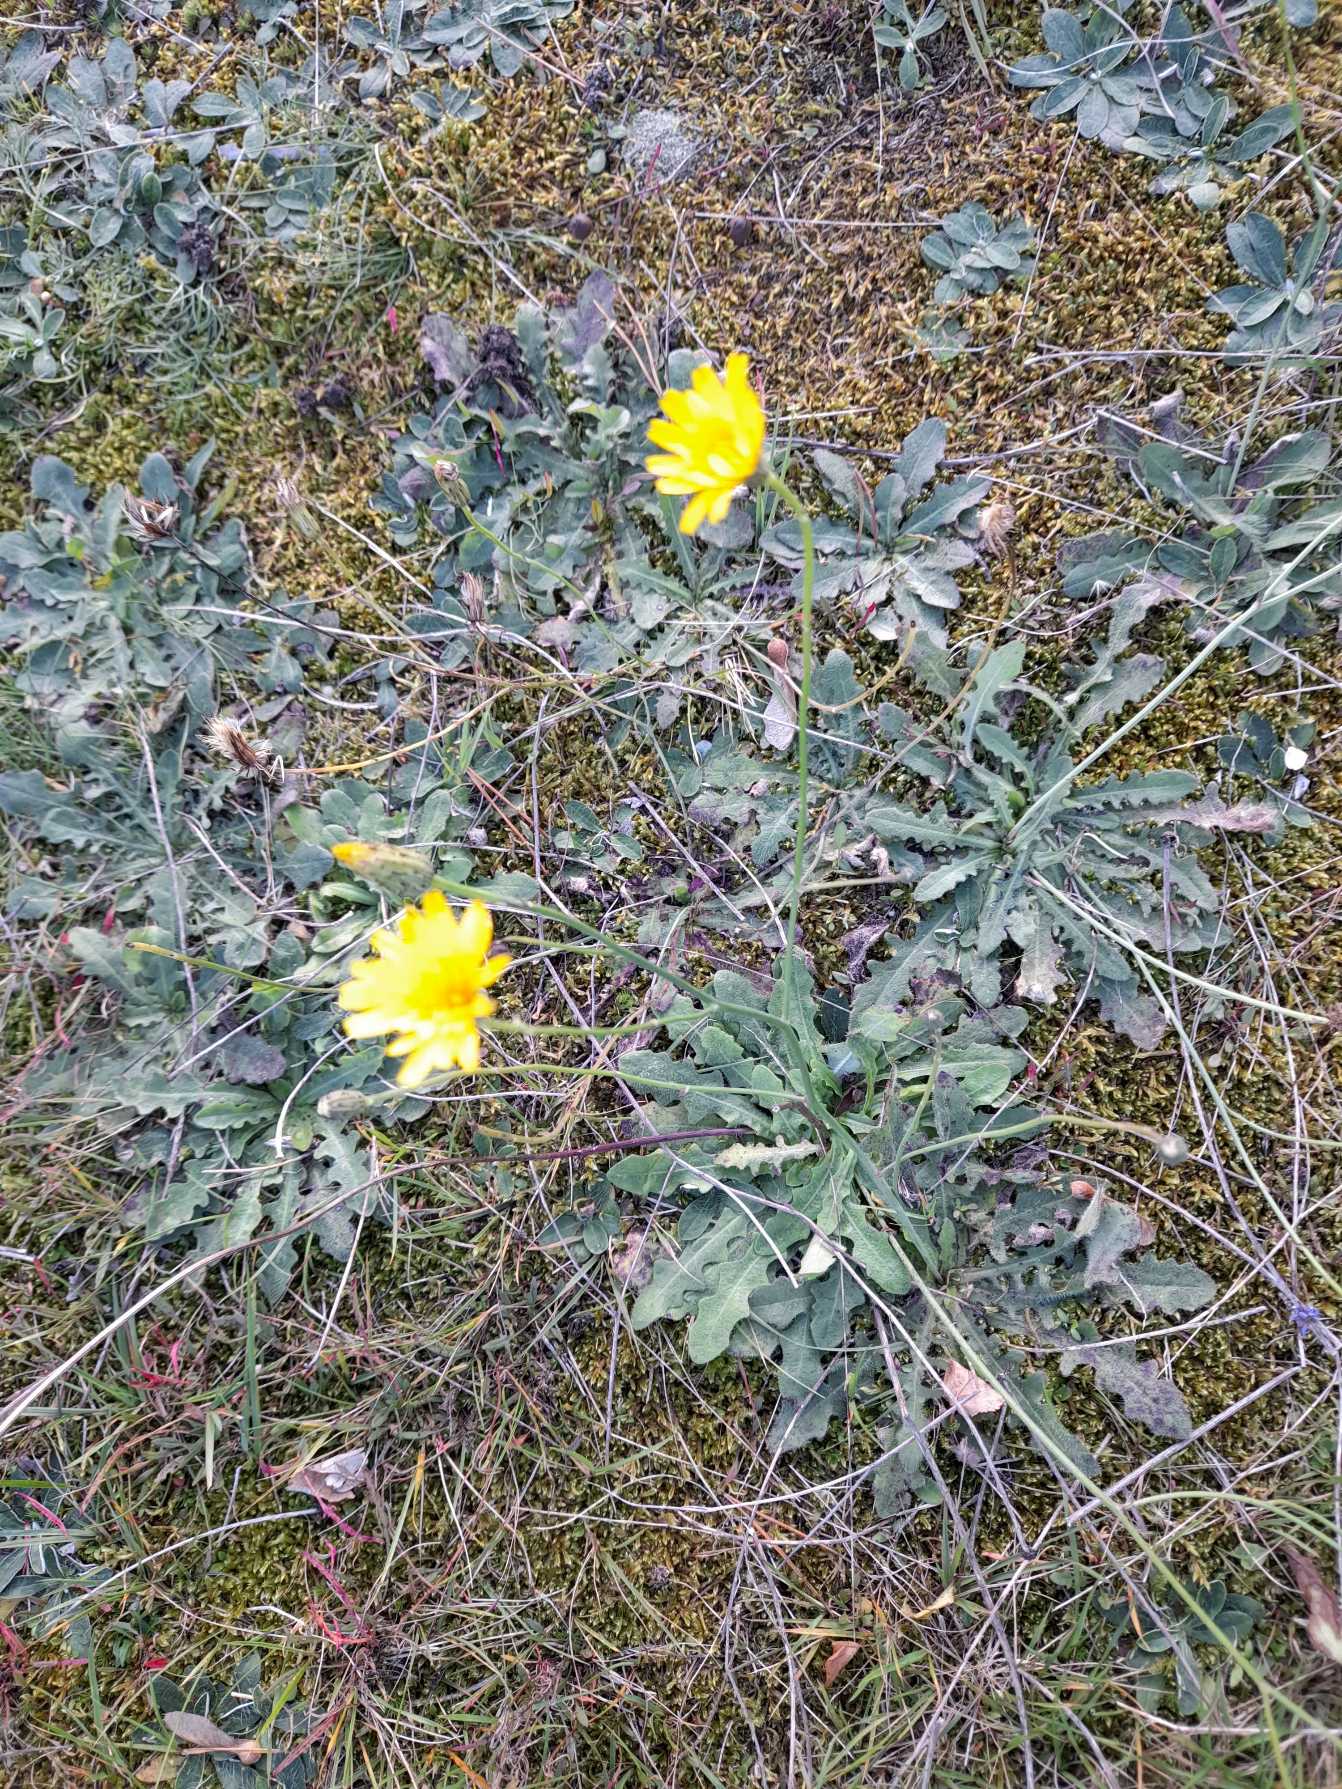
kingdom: Plantae
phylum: Tracheophyta
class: Magnoliopsida
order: Asterales
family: Asteraceae
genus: Hypochaeris
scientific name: Hypochaeris radicata
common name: Almindelig kongepen
